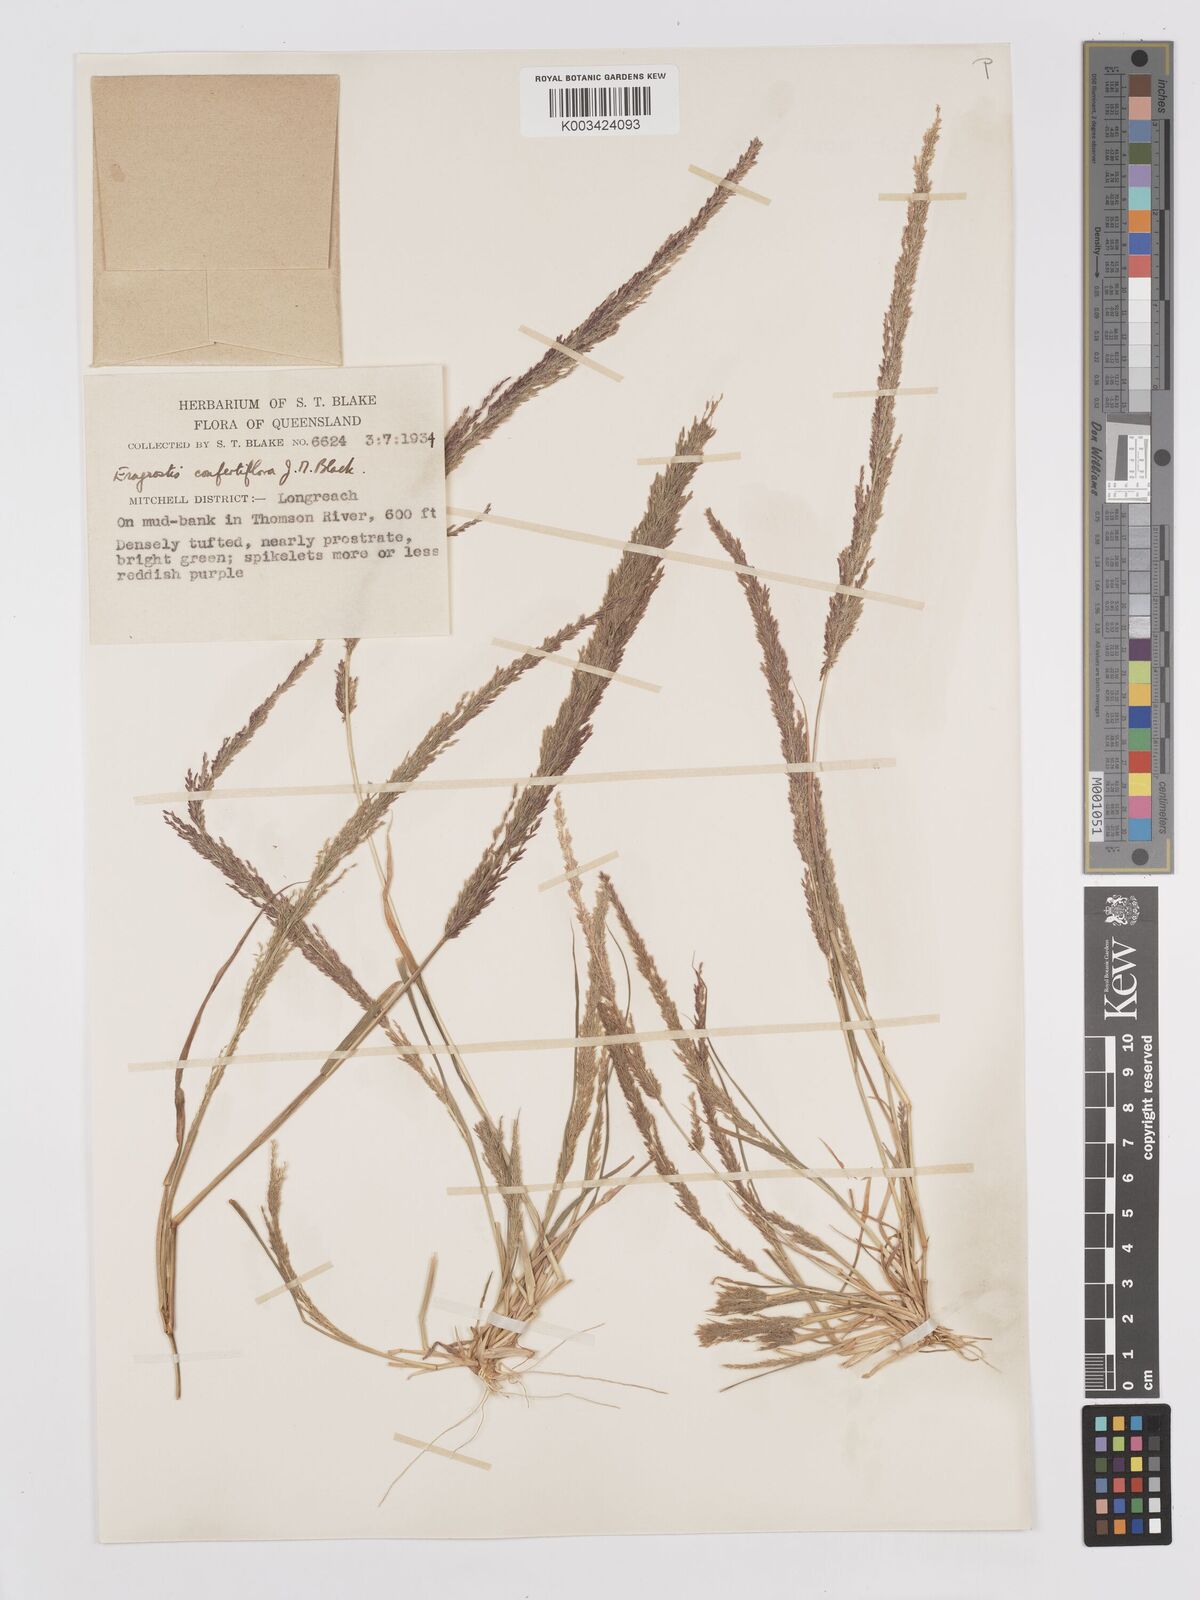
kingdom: Plantae
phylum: Tracheophyta
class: Liliopsida
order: Poales
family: Poaceae
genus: Eragrostis
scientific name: Eragrostis confertiflora
